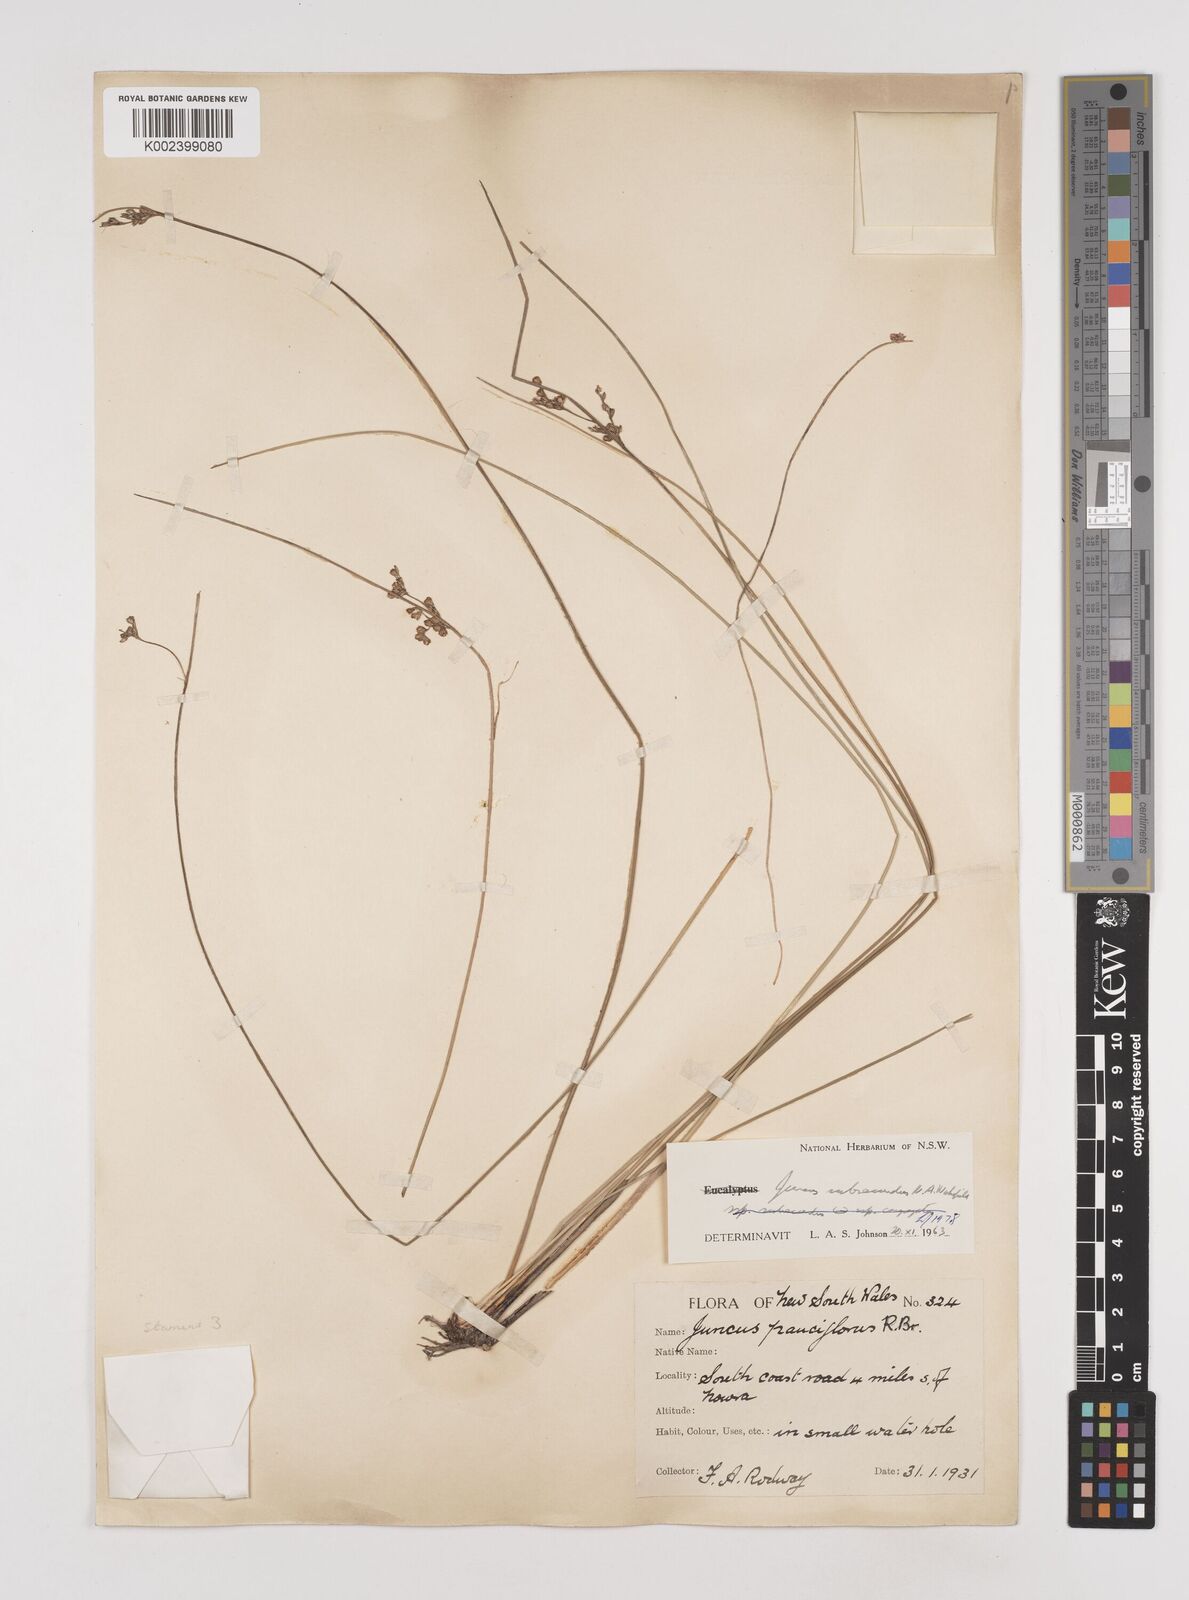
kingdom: Plantae
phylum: Tracheophyta
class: Liliopsida
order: Poales
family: Juncaceae
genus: Juncus
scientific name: Juncus subsecundus
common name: Fingered rush
